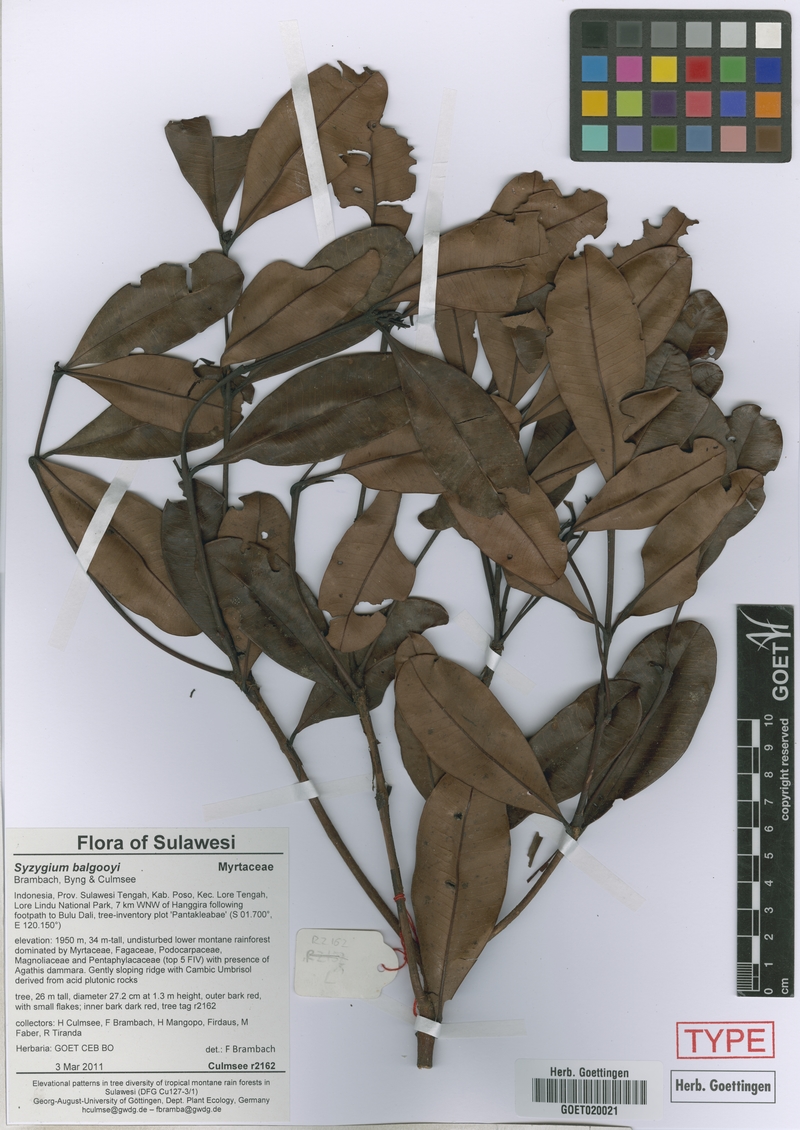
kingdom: Plantae
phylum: Tracheophyta
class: Magnoliopsida
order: Myrtales
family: Myrtaceae
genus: Syzygium
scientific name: Syzygium balgooyi
